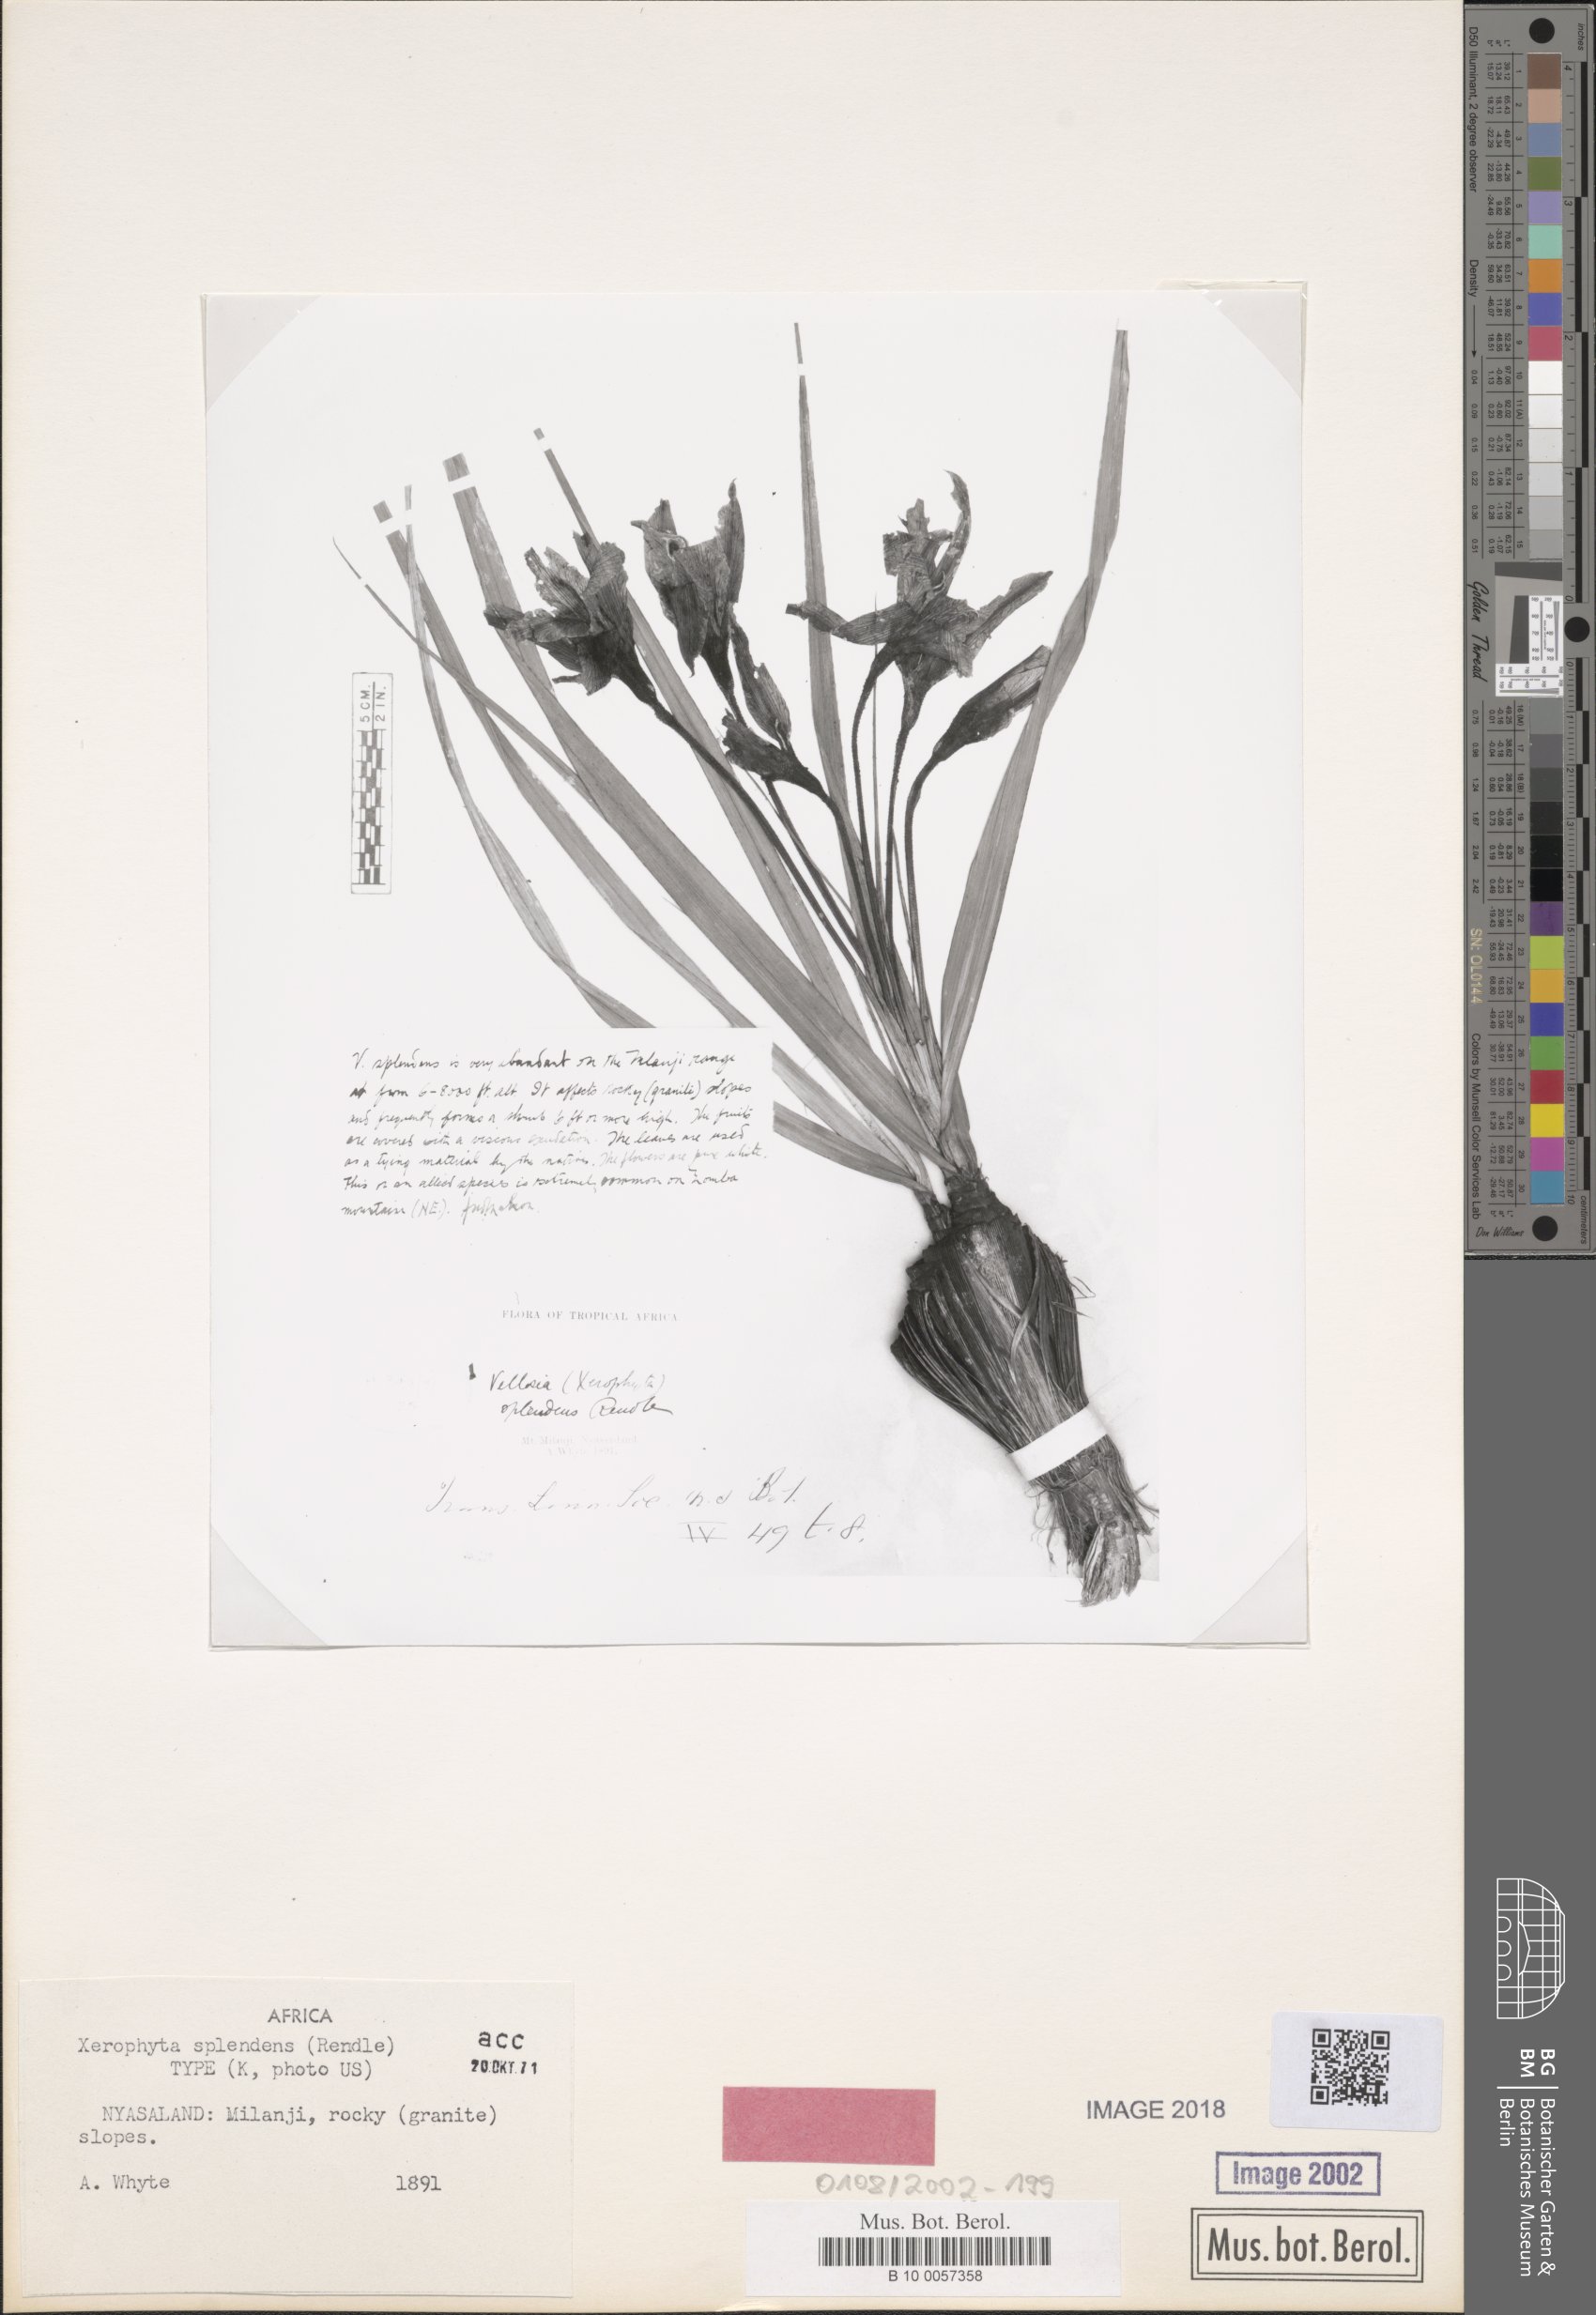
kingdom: Plantae
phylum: Tracheophyta
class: Liliopsida
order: Pandanales
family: Velloziaceae
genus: Xerophyta
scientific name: Xerophyta splendens
